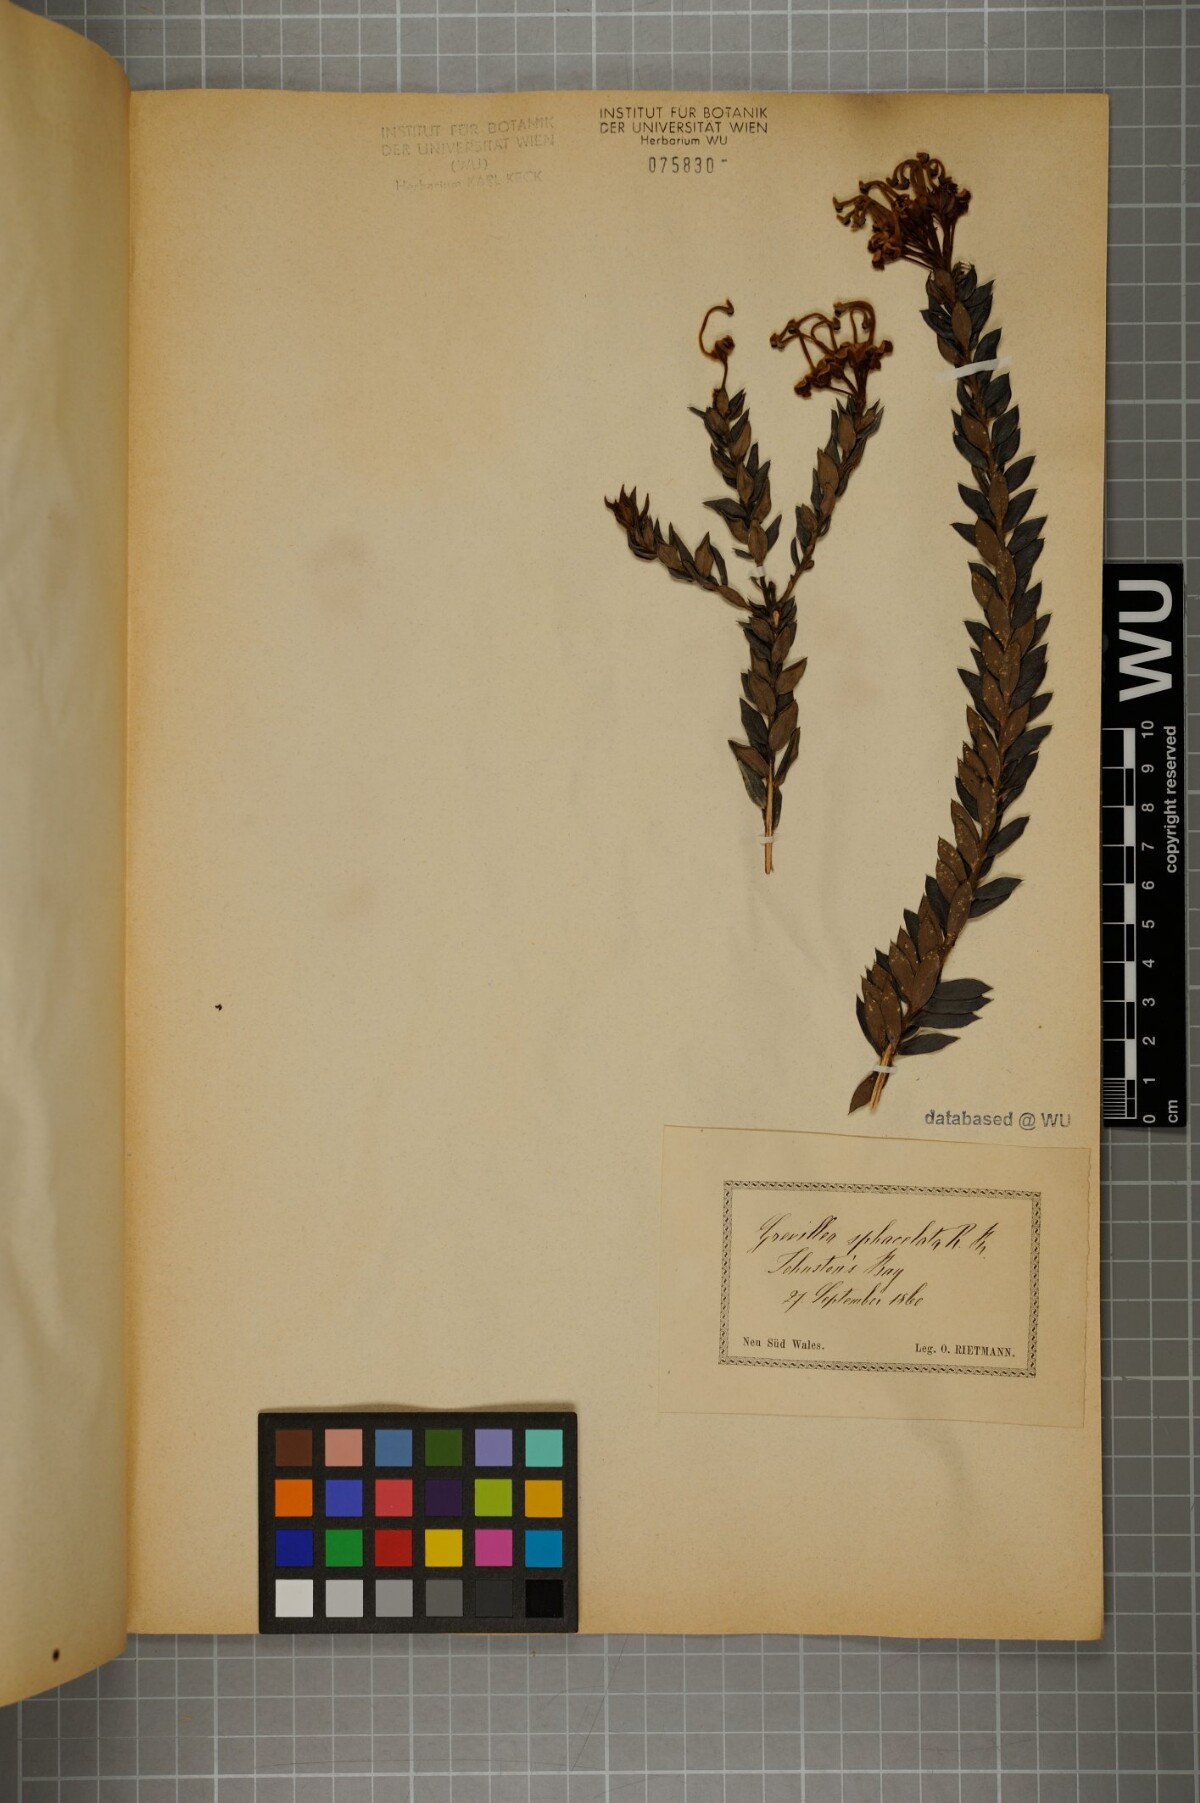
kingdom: Plantae
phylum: Tracheophyta
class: Magnoliopsida
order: Proteales
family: Proteaceae
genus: Grevillea
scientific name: Grevillea sphacelata
